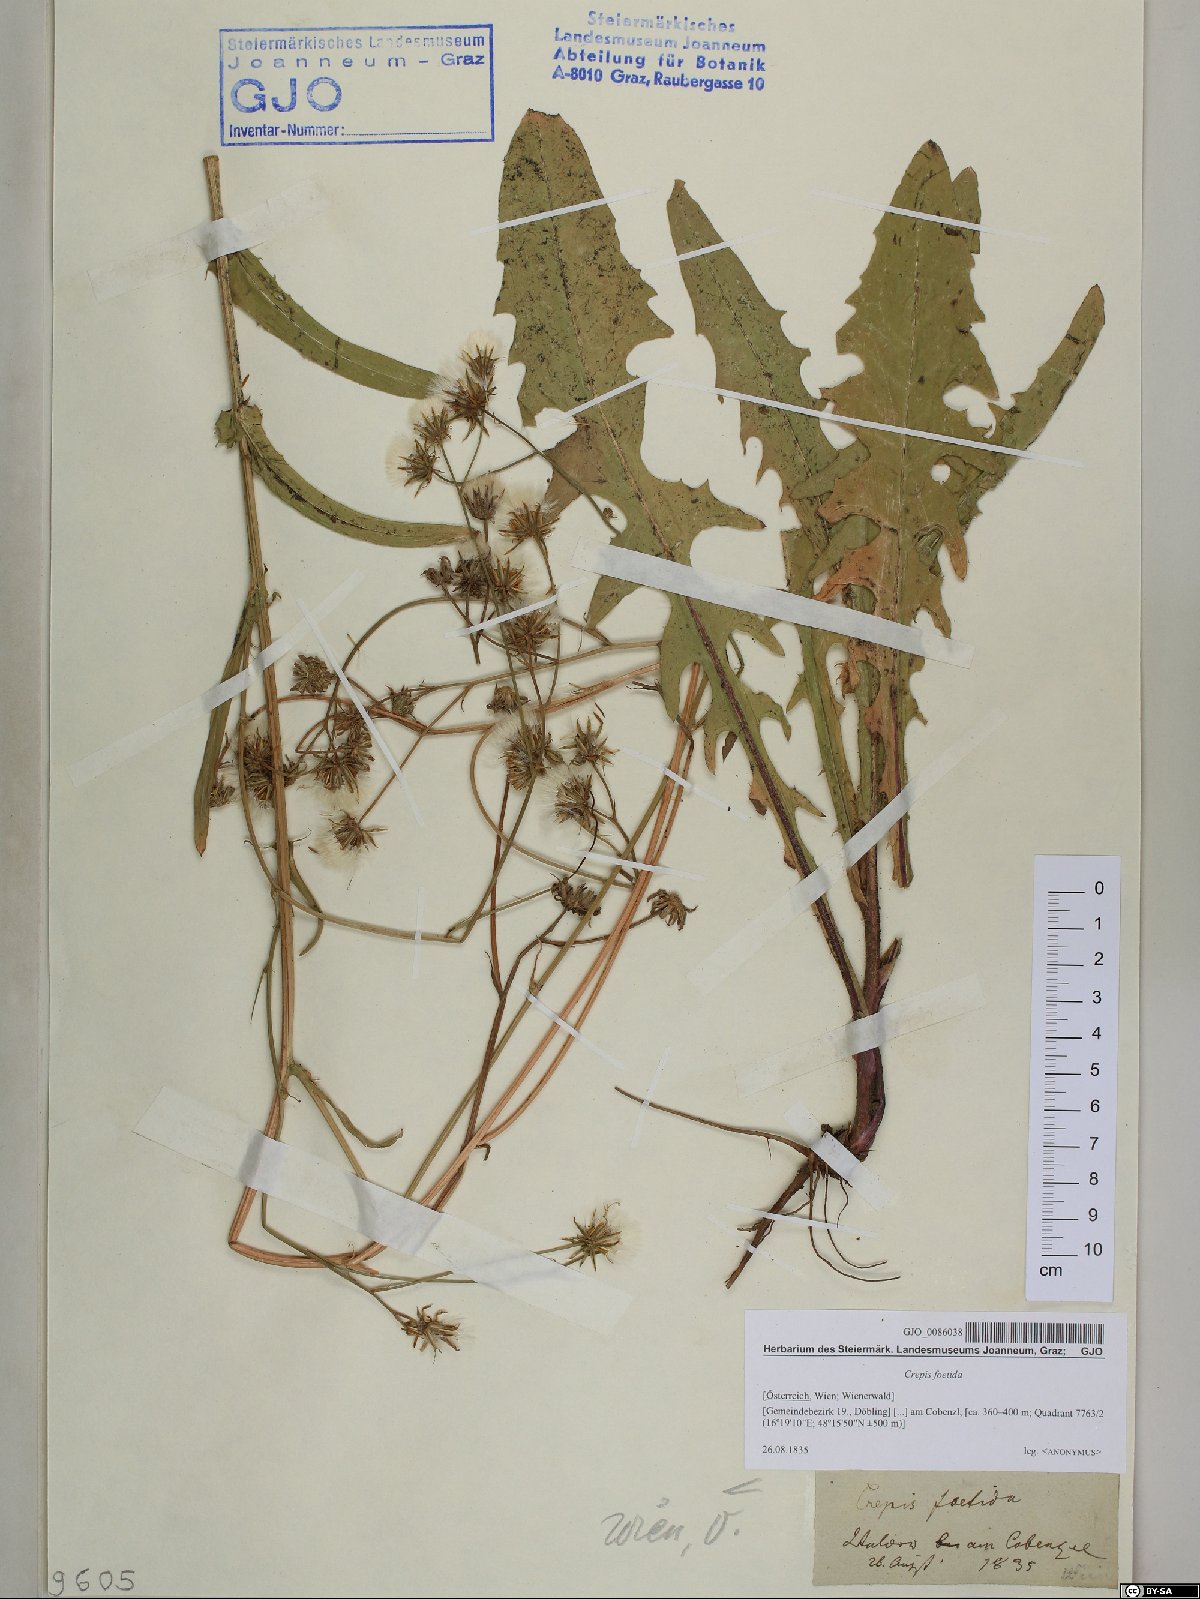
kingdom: Plantae
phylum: Tracheophyta
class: Magnoliopsida
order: Asterales
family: Asteraceae
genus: Crepis
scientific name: Crepis foetida
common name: Stinking hawk's-beard
